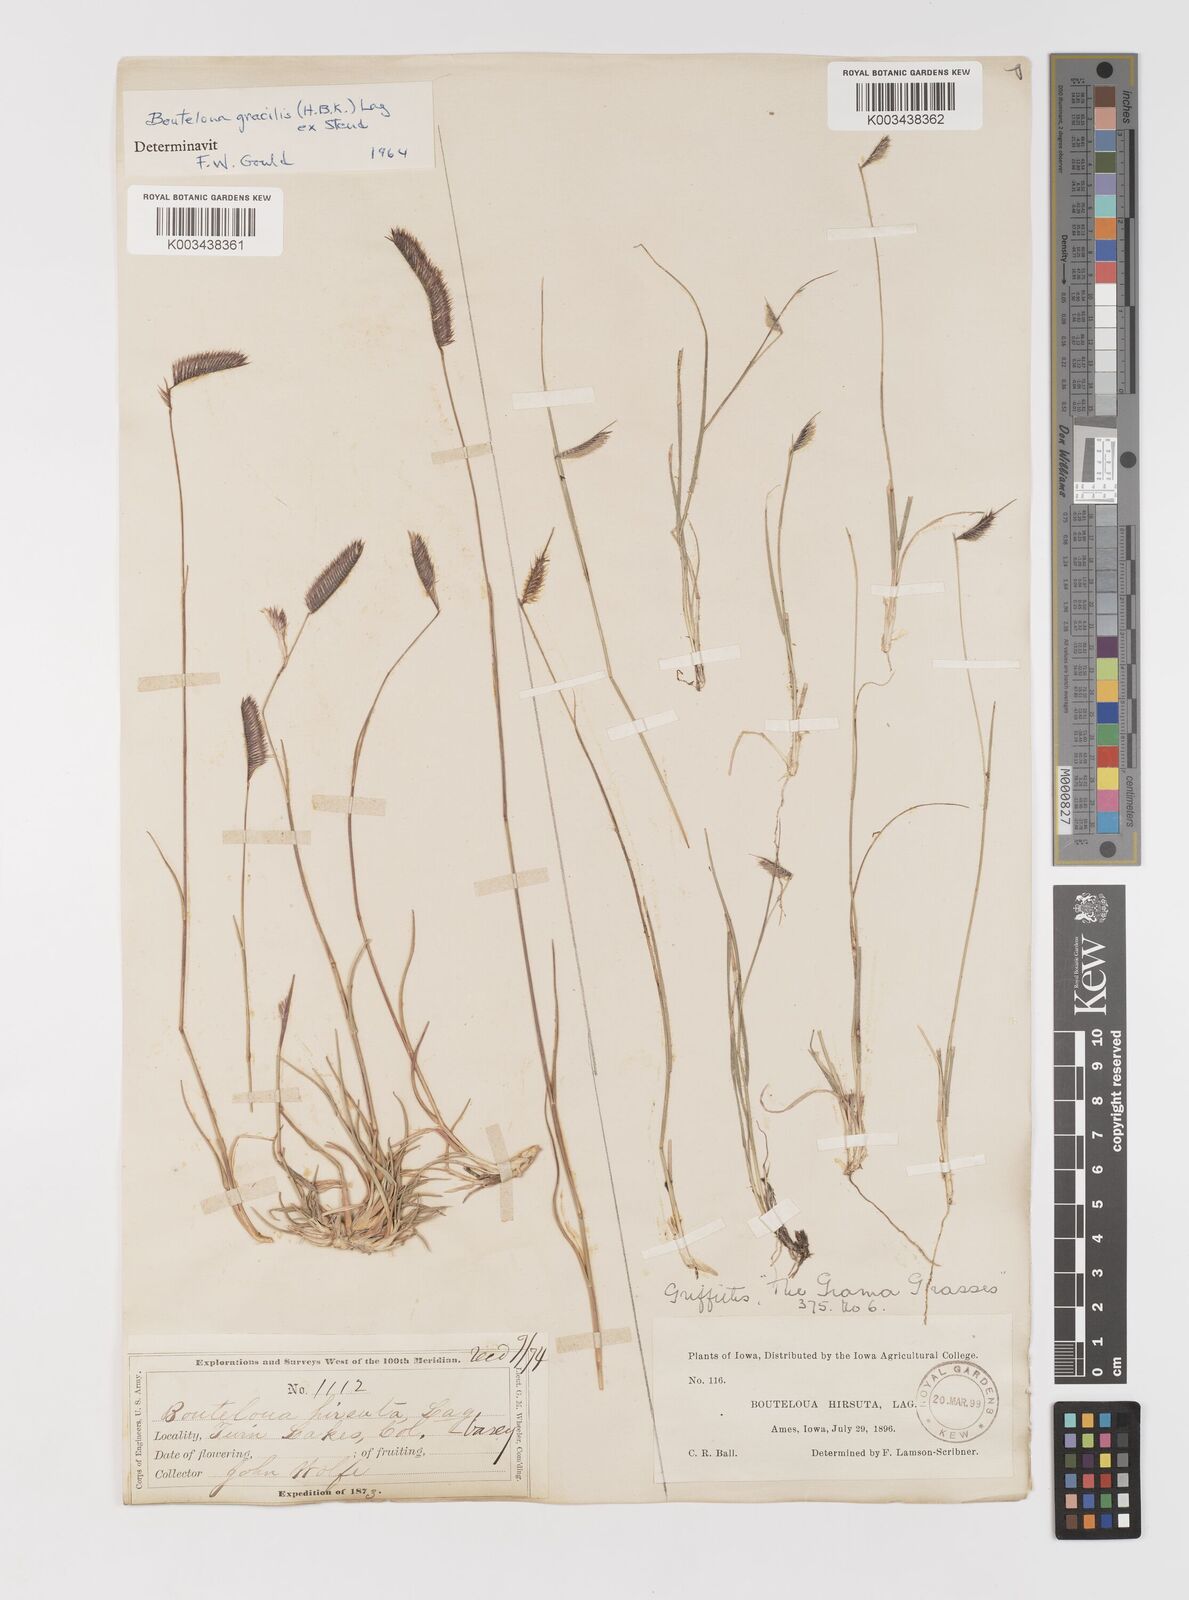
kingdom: Plantae
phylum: Tracheophyta
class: Liliopsida
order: Poales
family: Poaceae
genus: Bouteloua
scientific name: Bouteloua hirsuta
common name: Hairy grama
